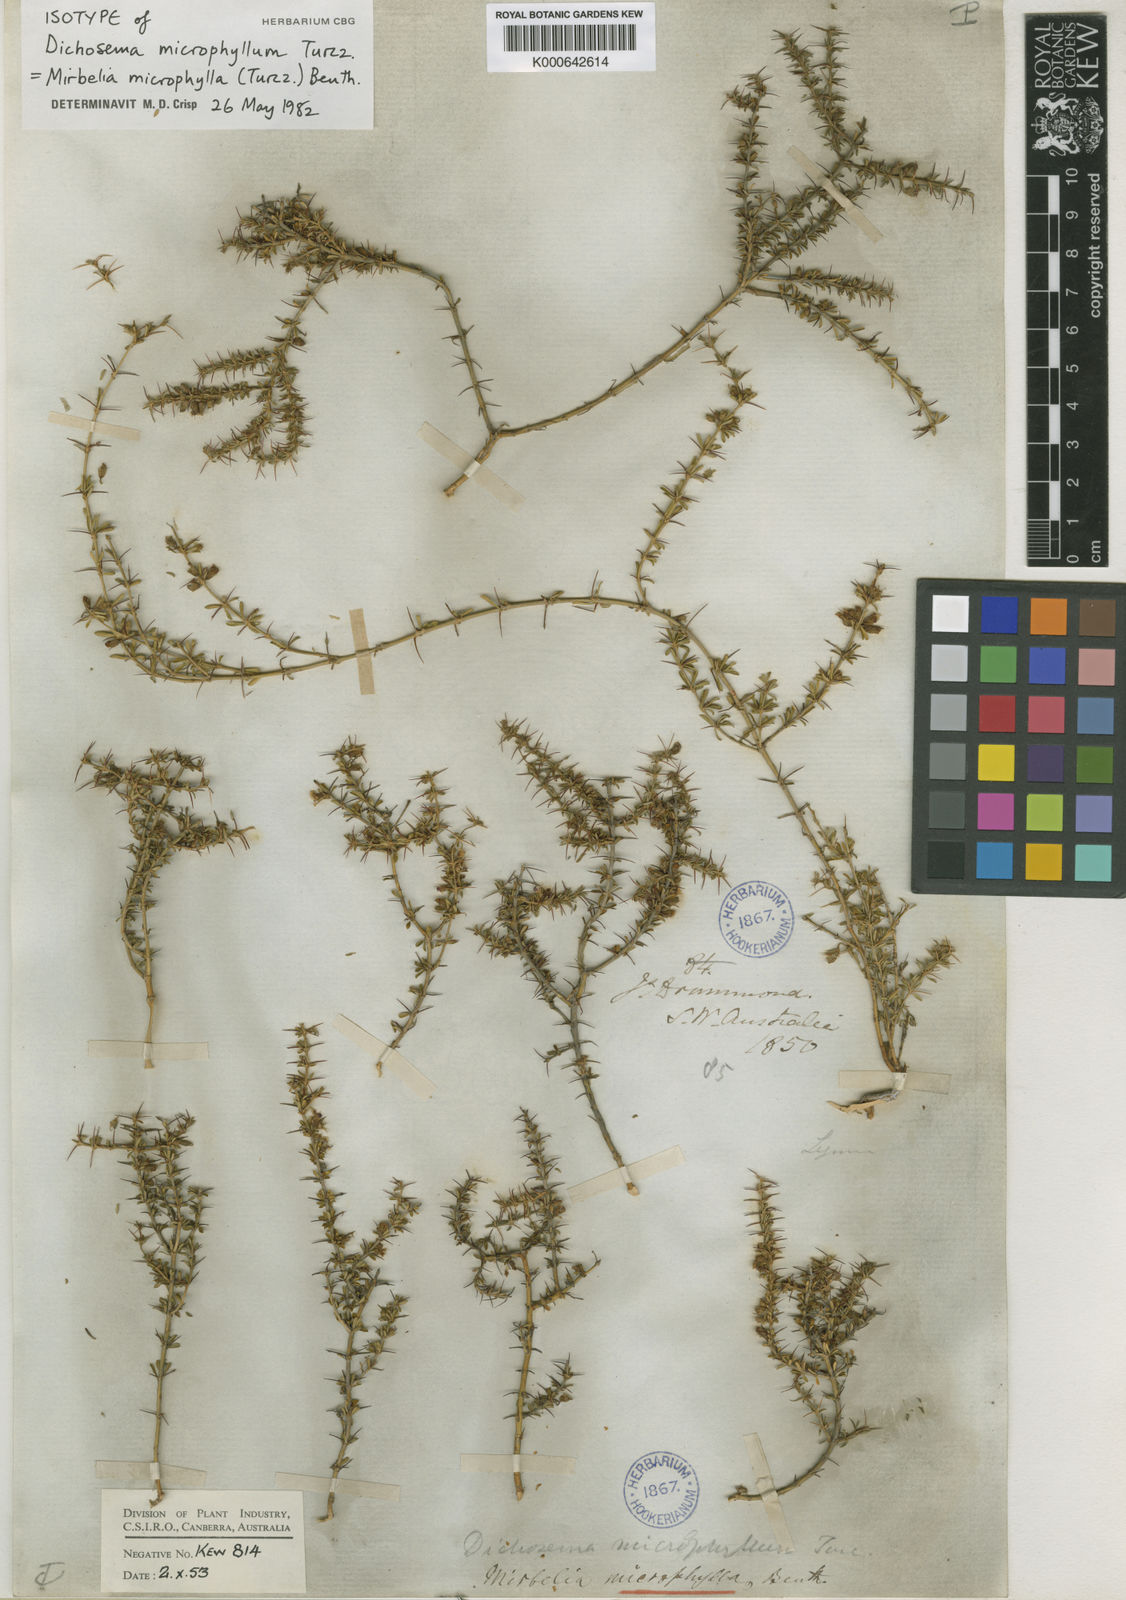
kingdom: Plantae
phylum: Tracheophyta
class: Magnoliopsida
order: Fabales
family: Fabaceae
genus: Mirbelia
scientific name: Mirbelia microphylla
